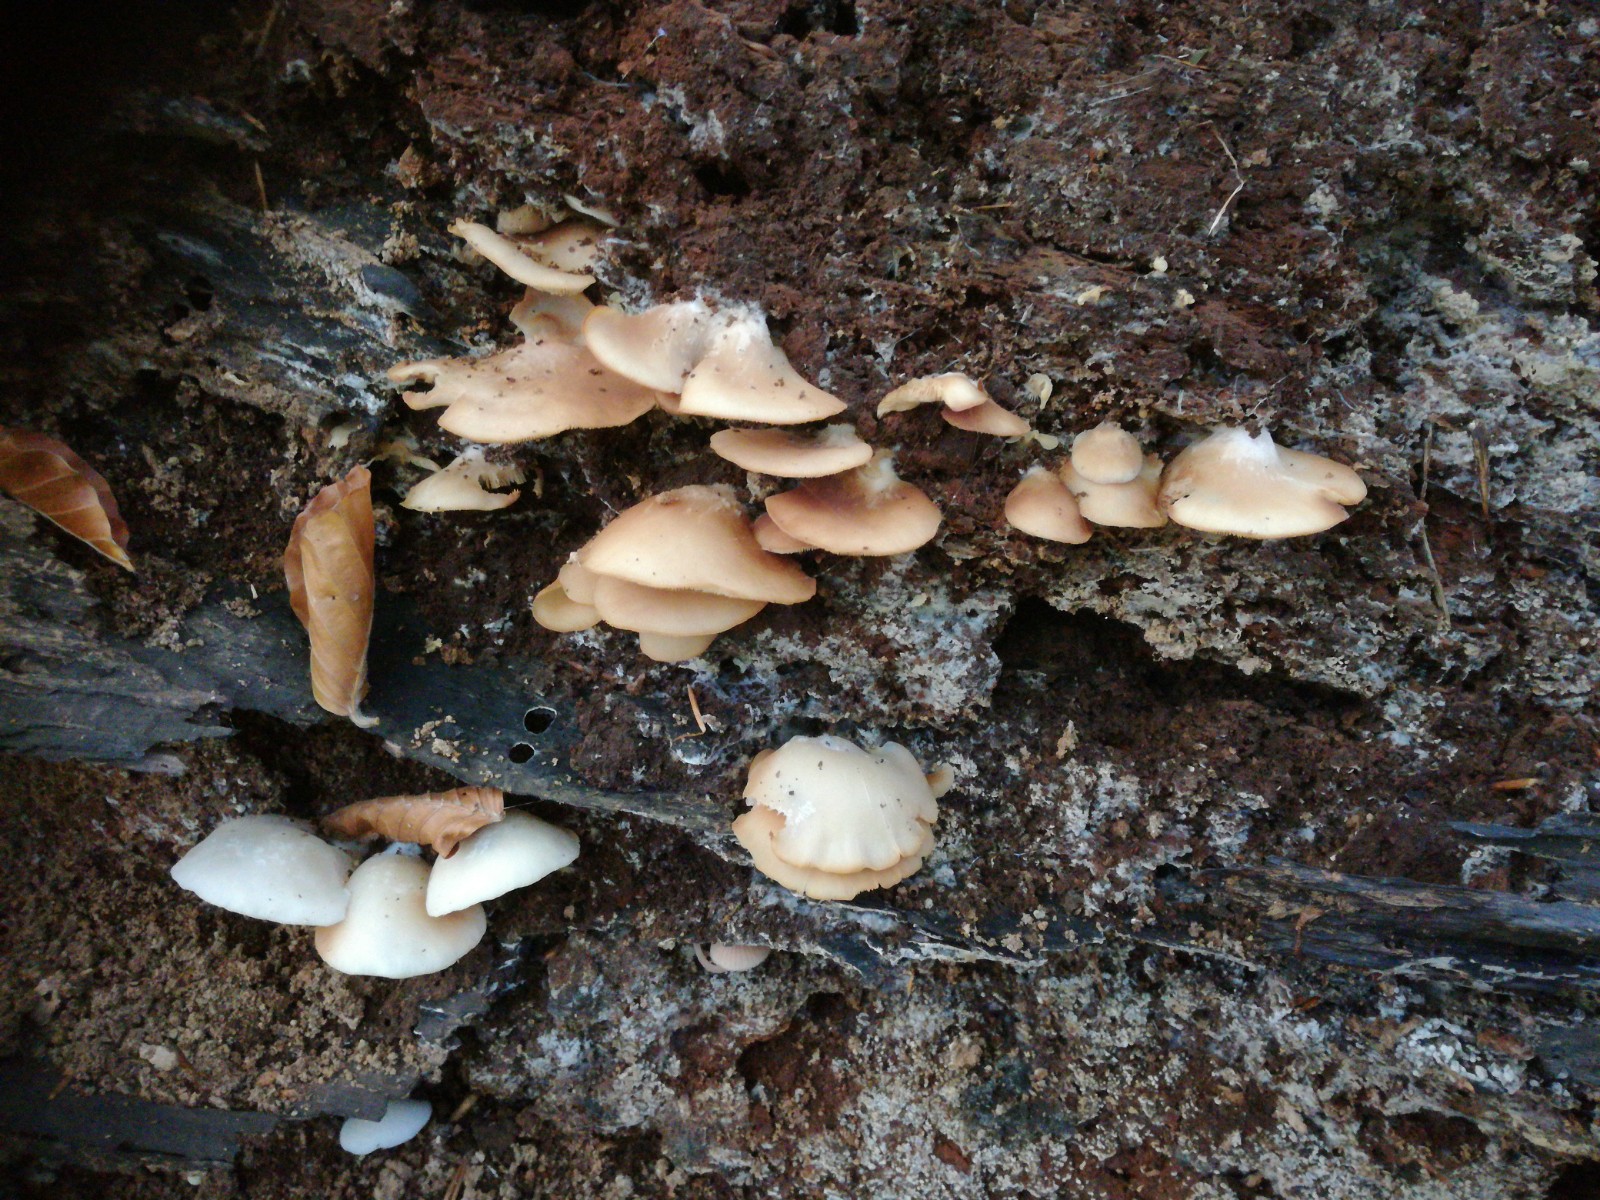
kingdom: Fungi
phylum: Basidiomycota
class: Agaricomycetes
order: Agaricales
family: Crepidotaceae
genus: Crepidotus
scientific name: Crepidotus applanatus
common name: tvefarvet muslingesvamp
